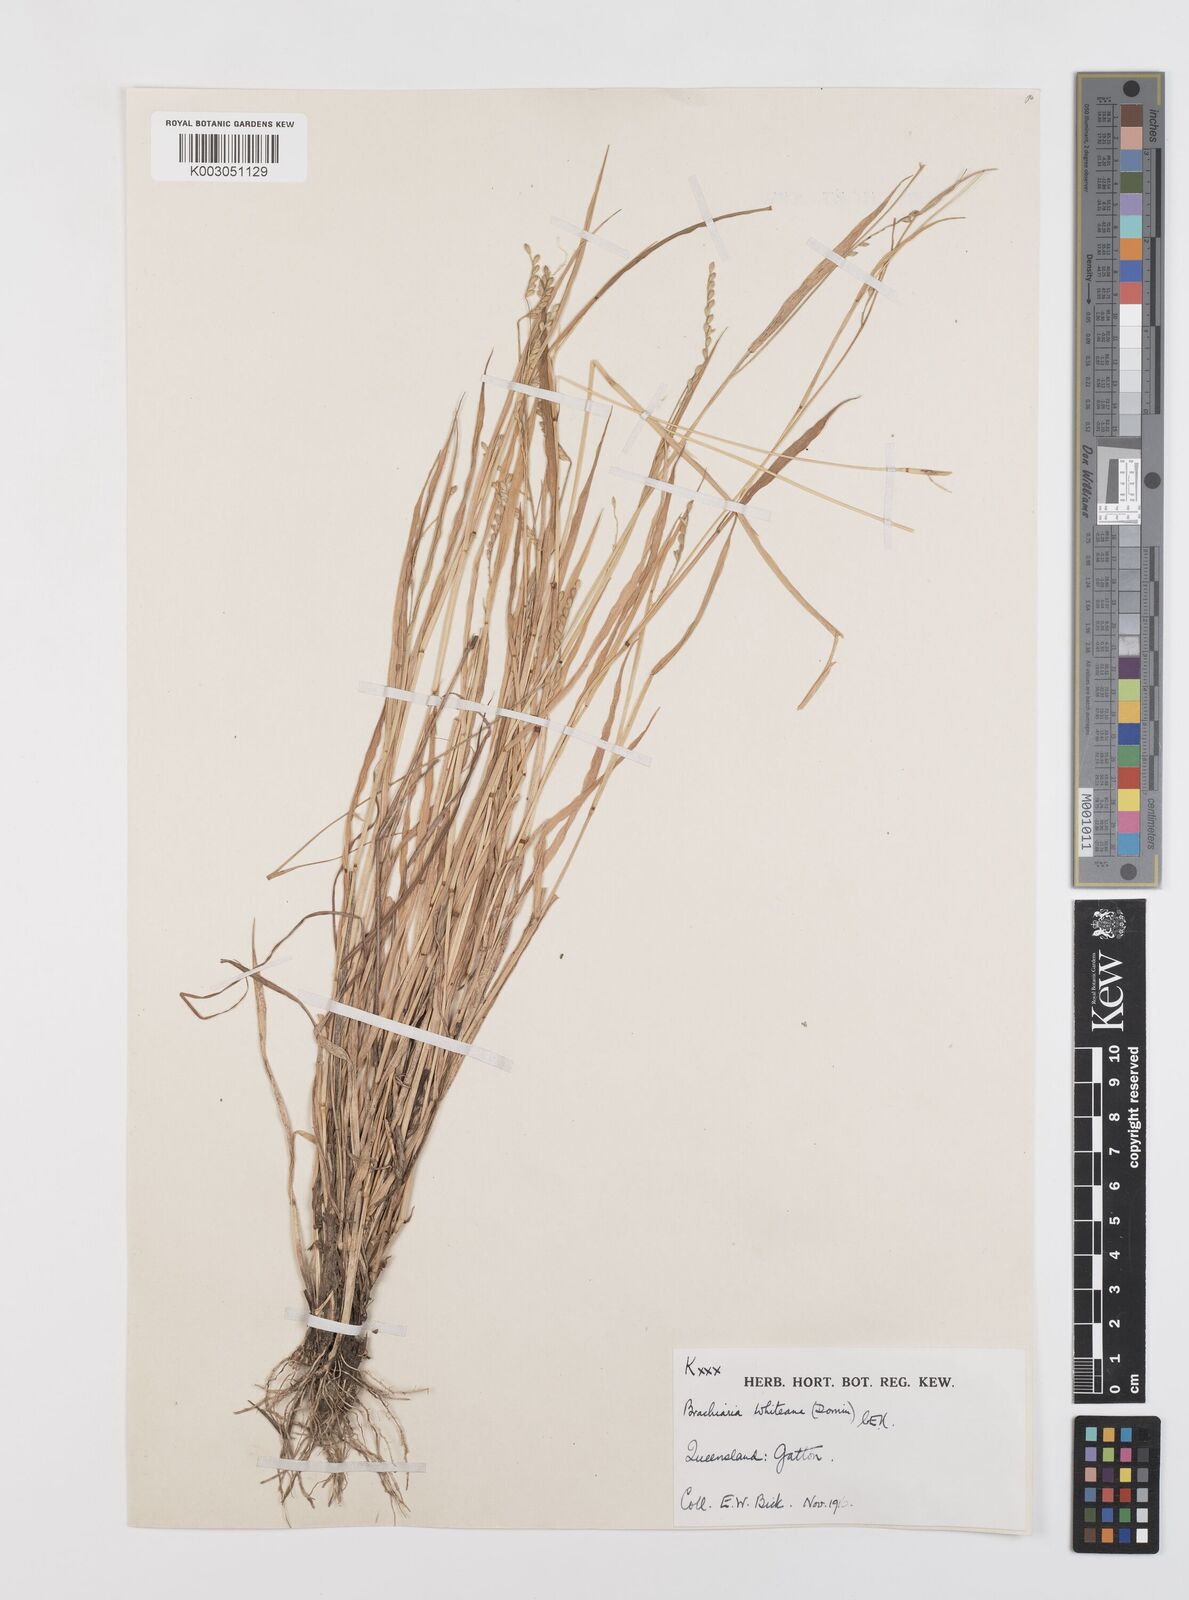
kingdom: Plantae
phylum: Tracheophyta
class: Liliopsida
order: Poales
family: Poaceae
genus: Urochloa
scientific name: Urochloa whiteana
